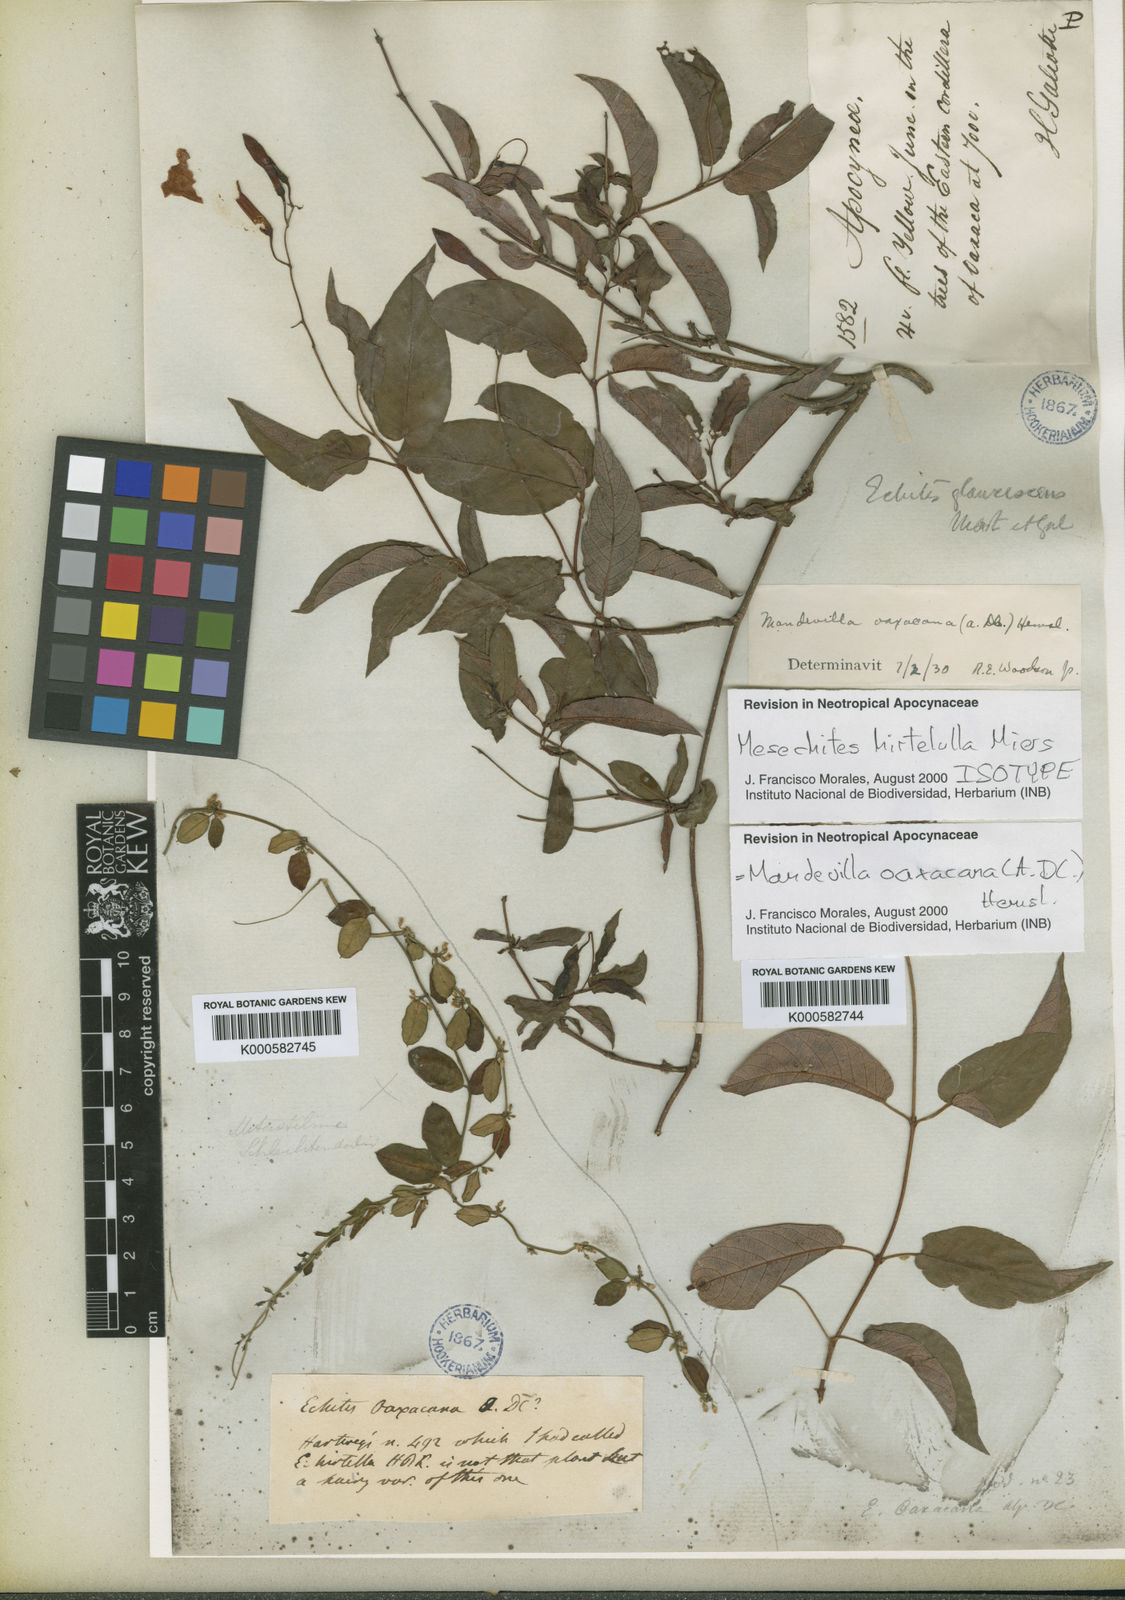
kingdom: Plantae
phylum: Tracheophyta
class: Magnoliopsida
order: Gentianales
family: Apocynaceae
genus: Mandevilla
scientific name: Mandevilla oaxacana
